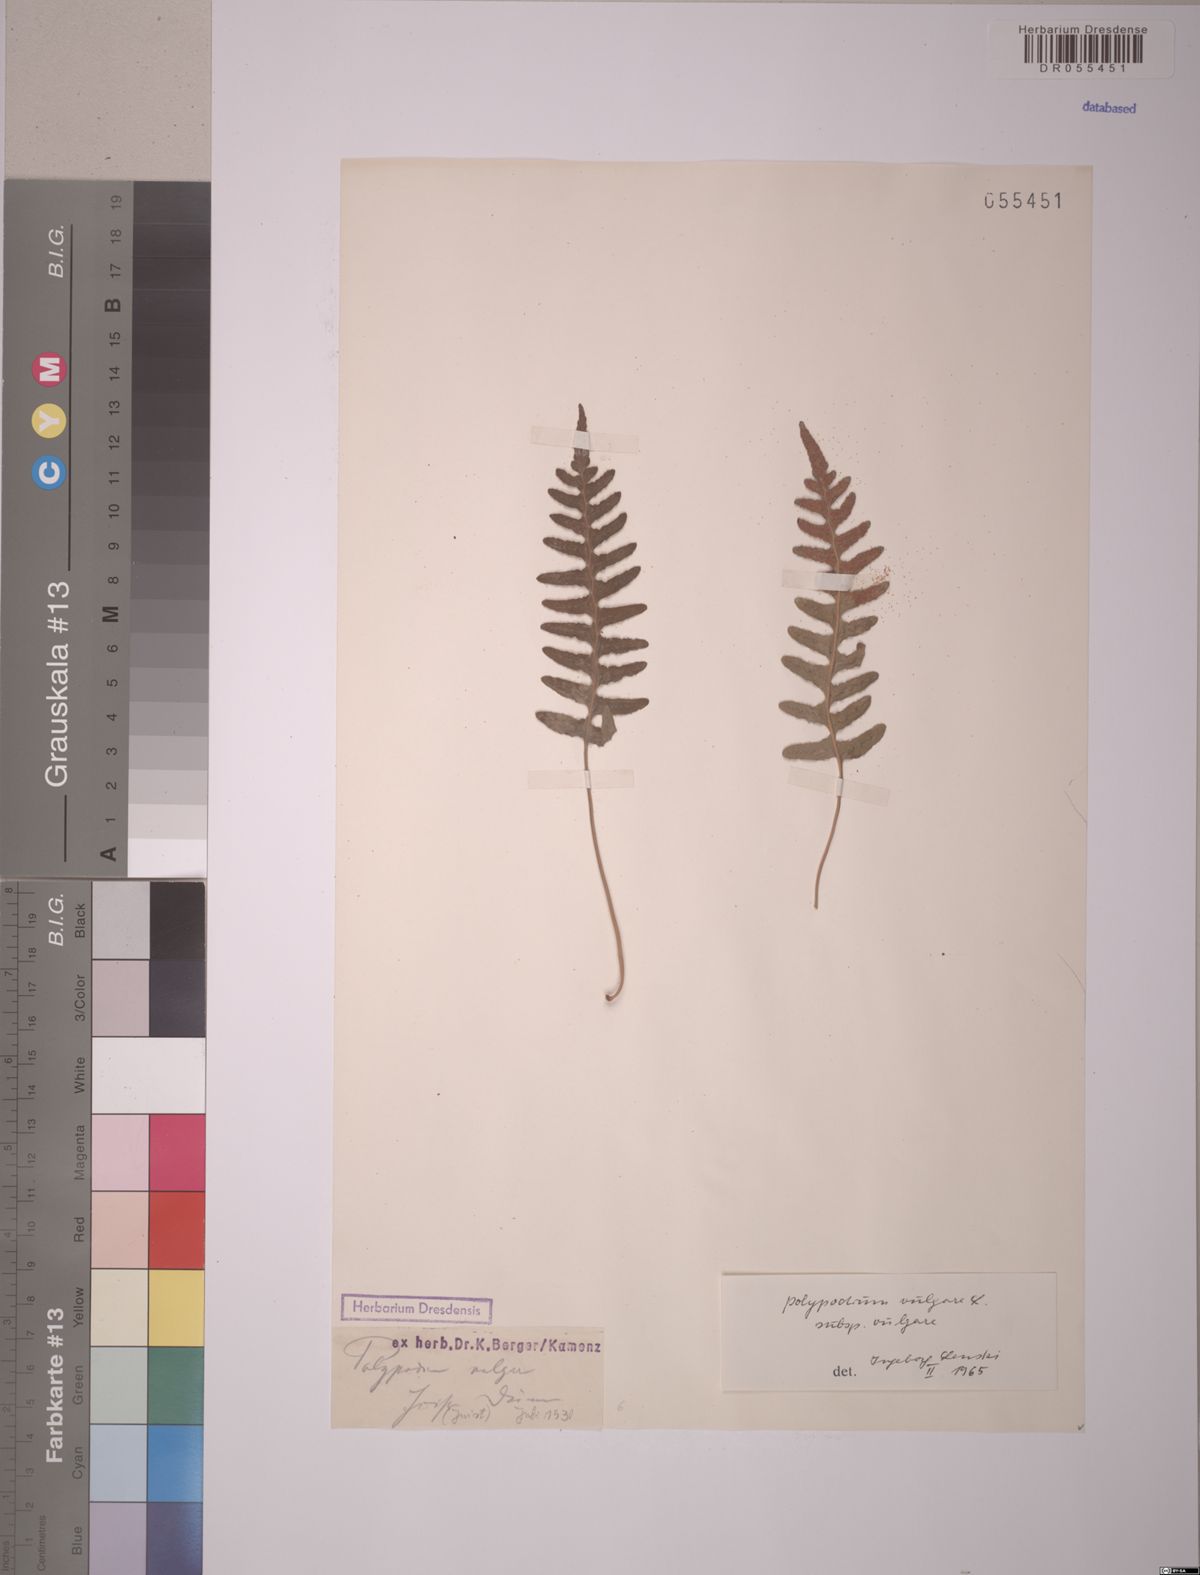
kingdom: Plantae
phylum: Tracheophyta
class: Polypodiopsida
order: Polypodiales
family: Polypodiaceae
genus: Polypodium
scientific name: Polypodium vulgare
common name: Common polypody
